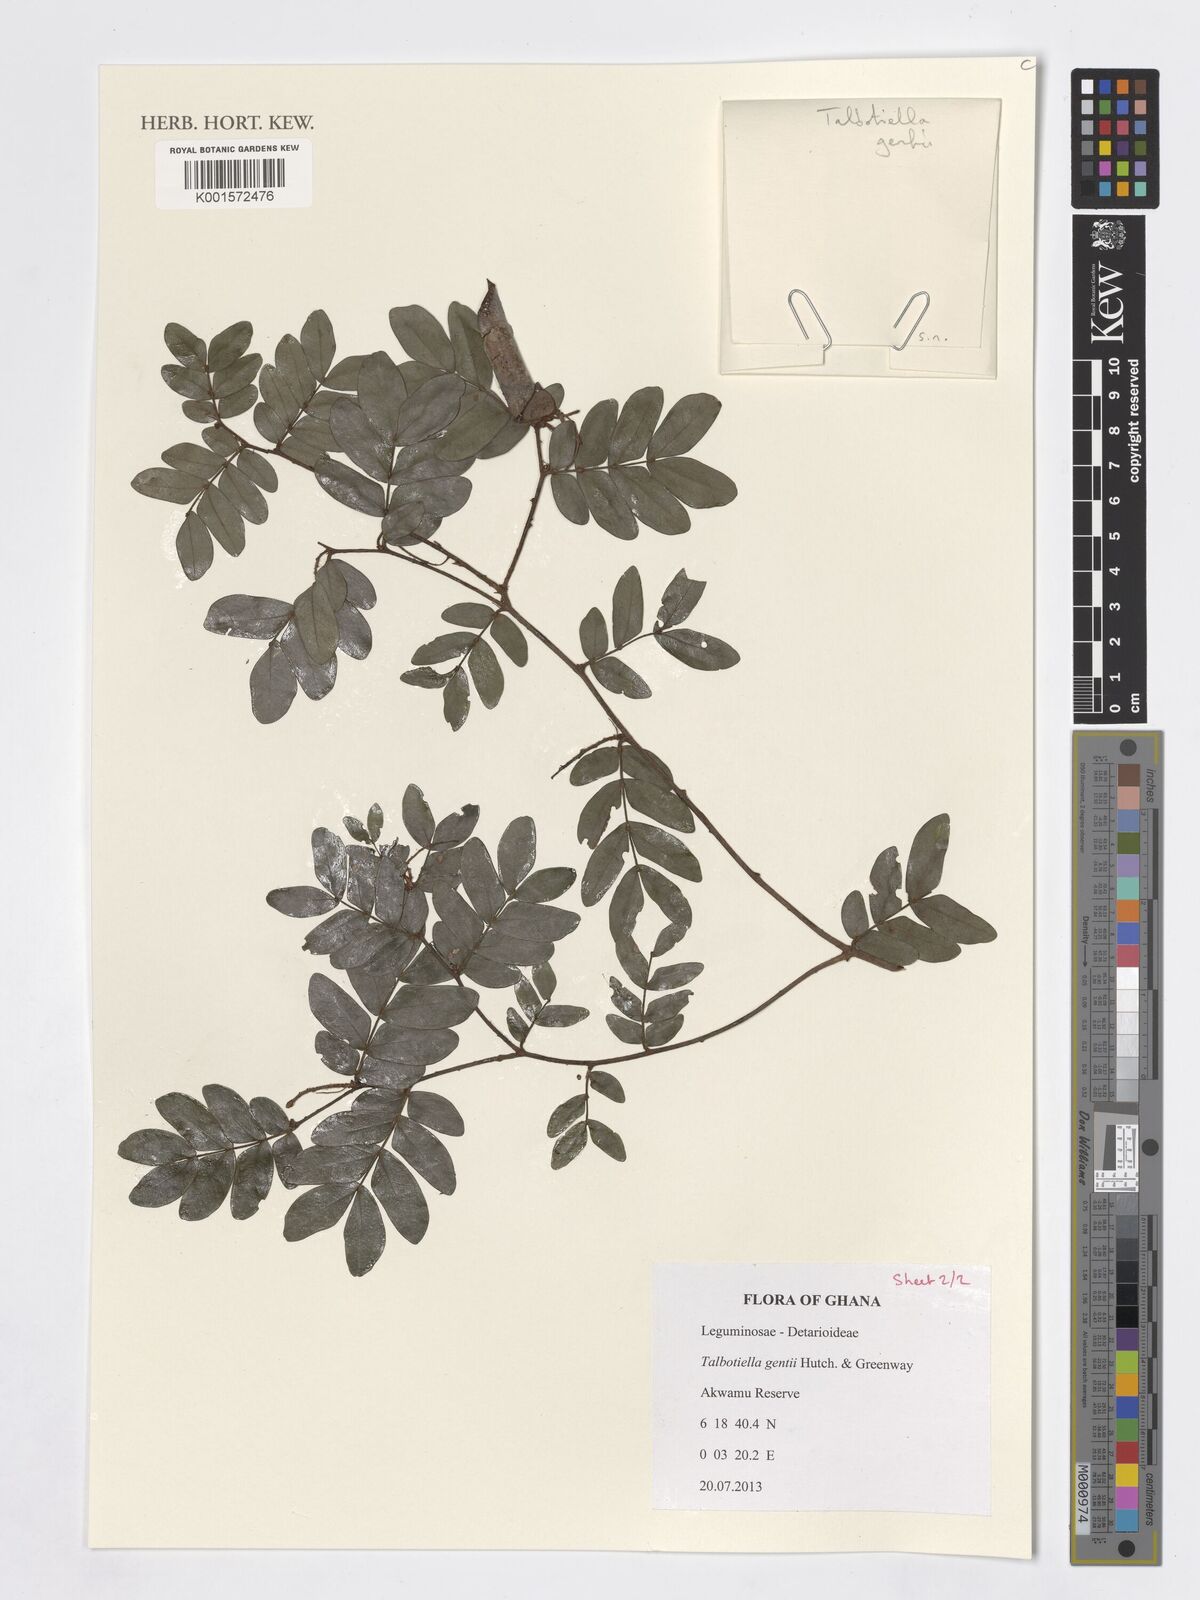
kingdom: Plantae
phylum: Tracheophyta
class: Magnoliopsida
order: Fabales
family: Fabaceae
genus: Talbotiella
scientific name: Talbotiella gentii
